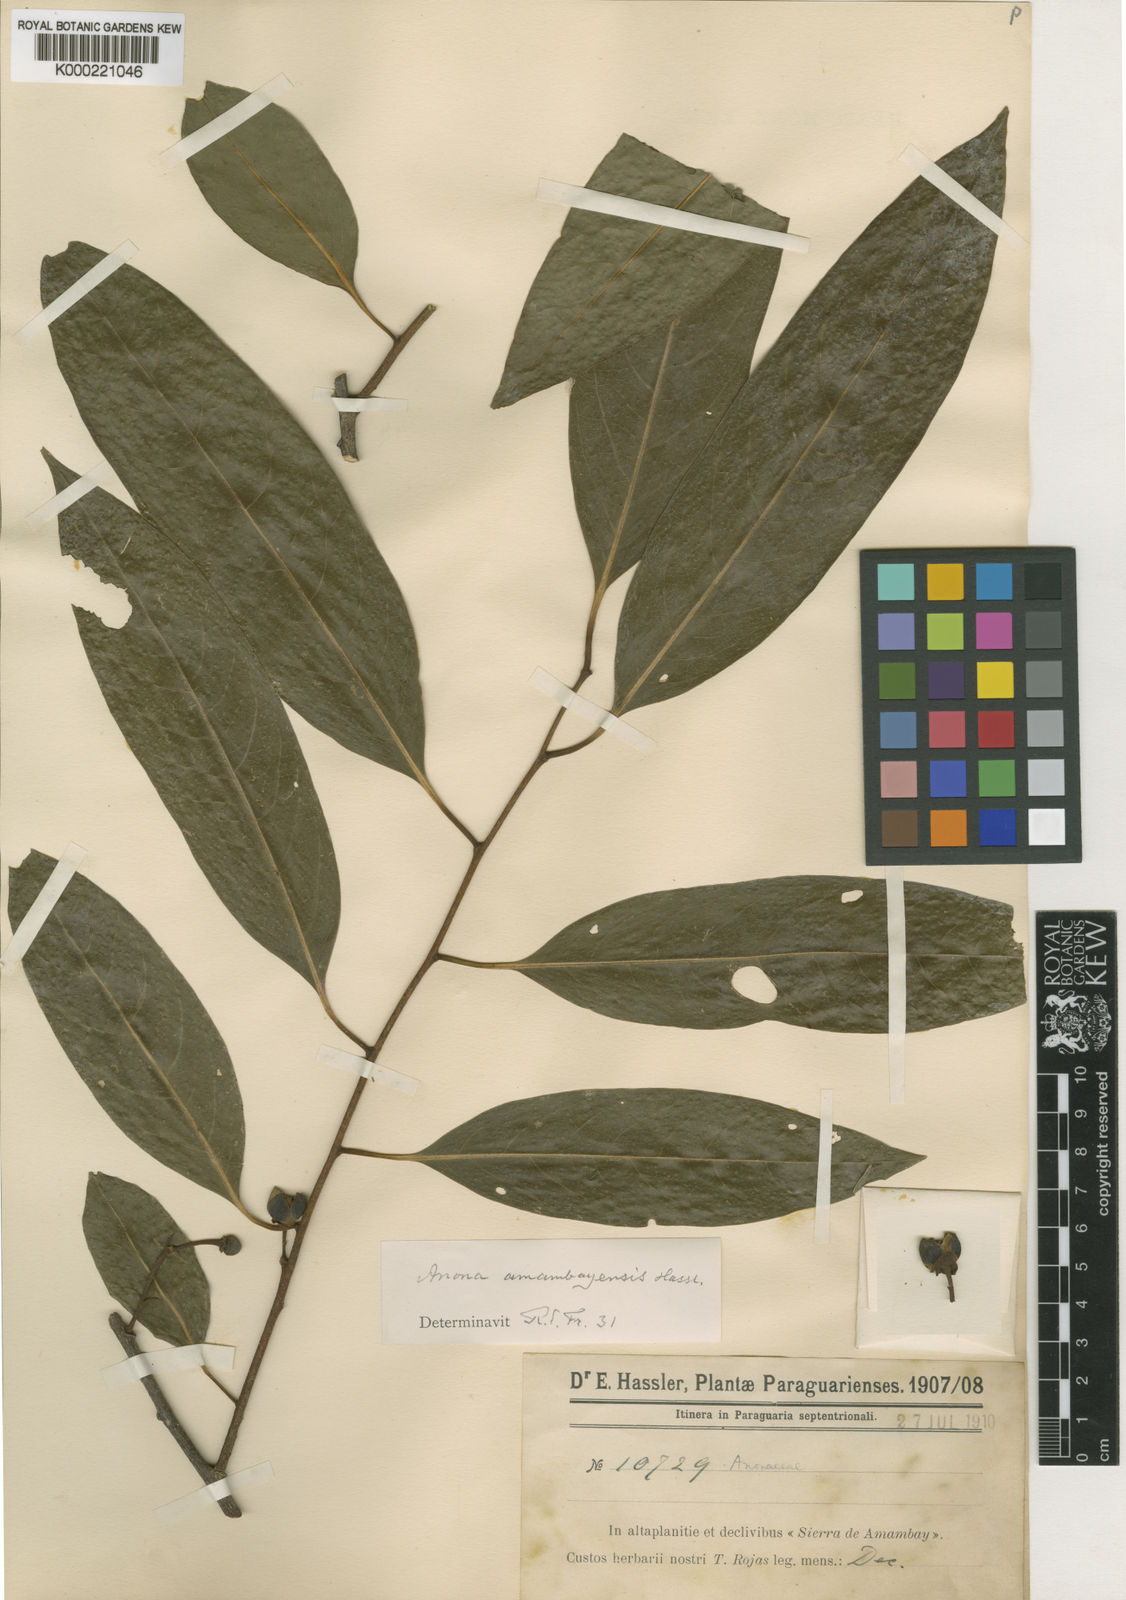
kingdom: Plantae
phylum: Tracheophyta
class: Magnoliopsida
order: Magnoliales
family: Annonaceae
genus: Annona
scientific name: Annona
